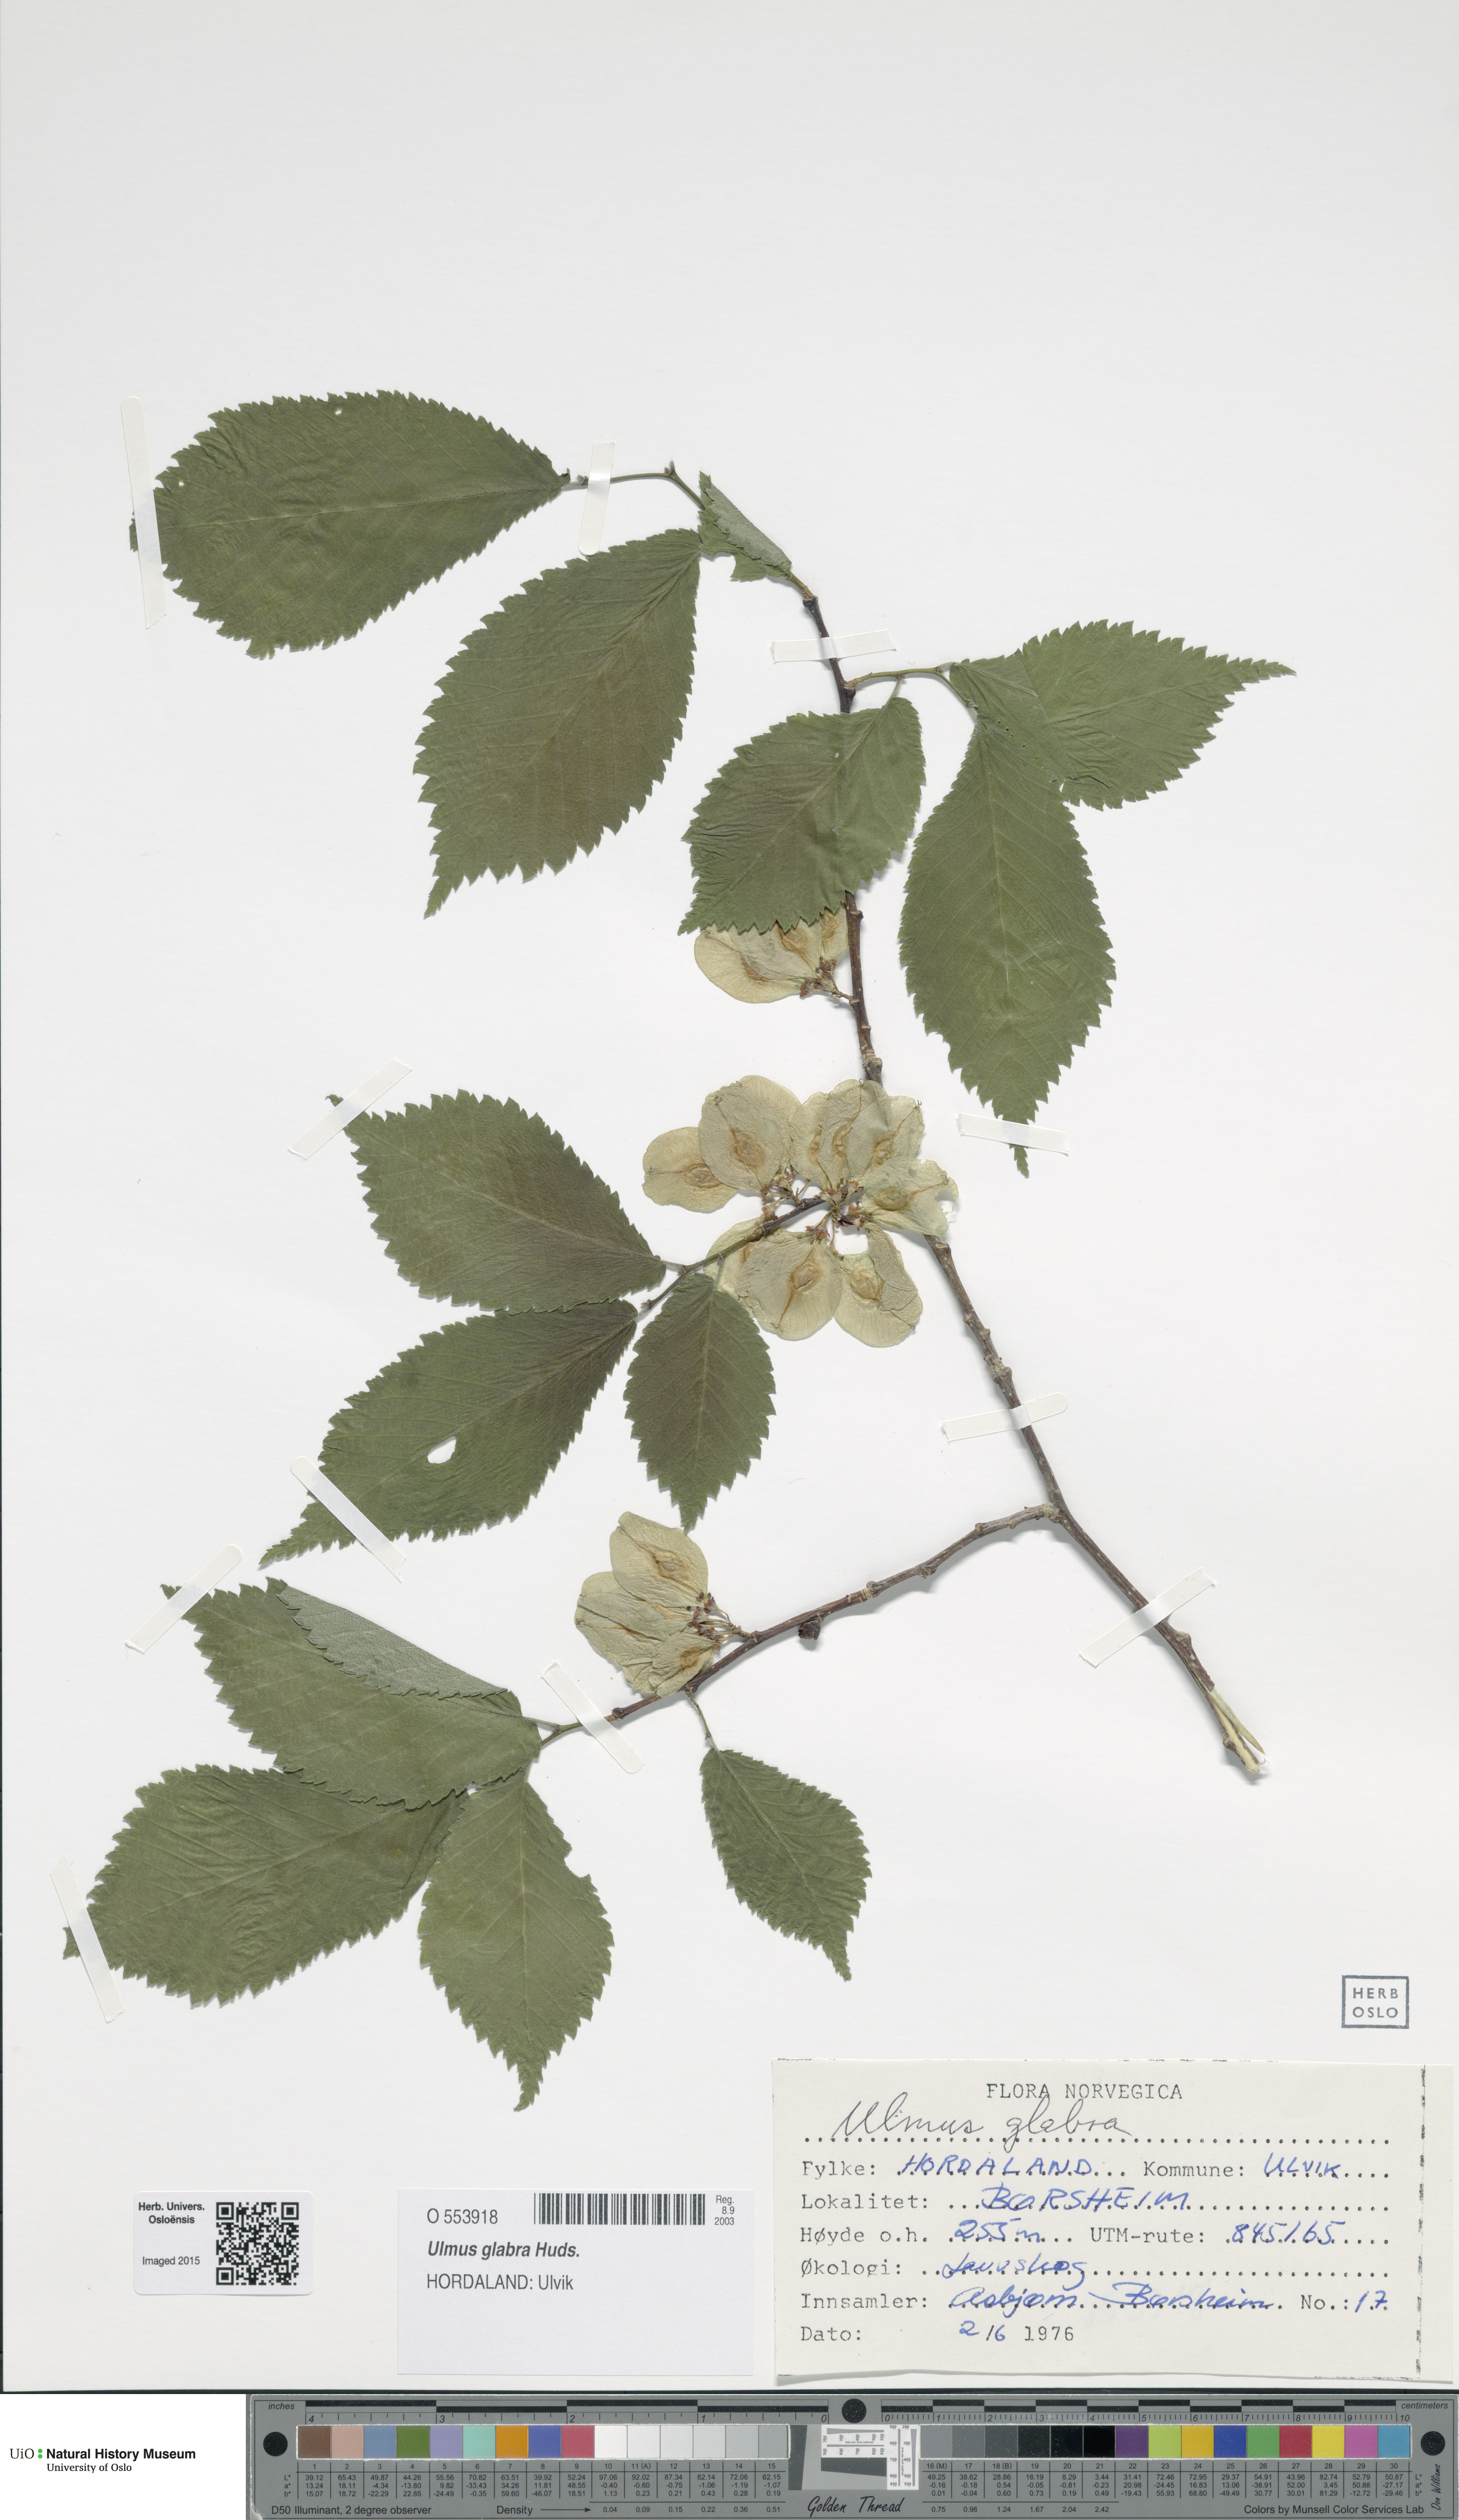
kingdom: Plantae
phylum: Tracheophyta
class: Magnoliopsida
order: Rosales
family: Ulmaceae
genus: Ulmus
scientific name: Ulmus glabra
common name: Wych elm
